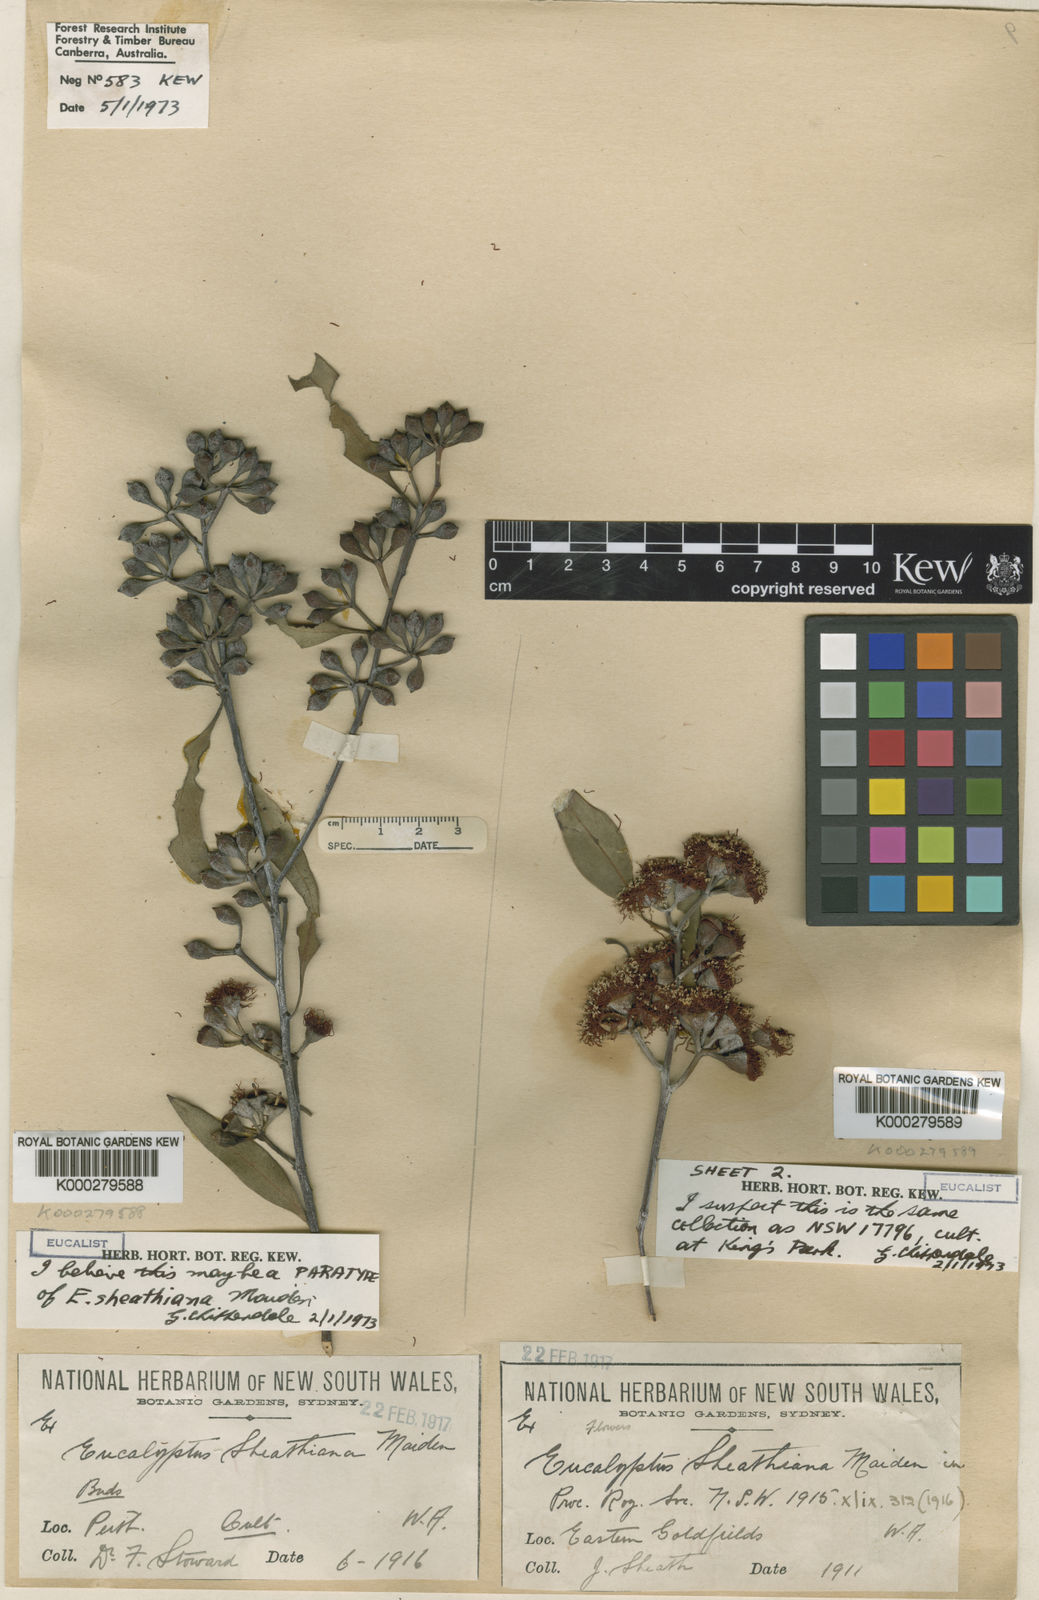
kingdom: Plantae
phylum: Tracheophyta
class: Magnoliopsida
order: Myrtales
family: Myrtaceae
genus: Eucalyptus
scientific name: Eucalyptus sheathiana
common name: Ribbon-barked mallee
